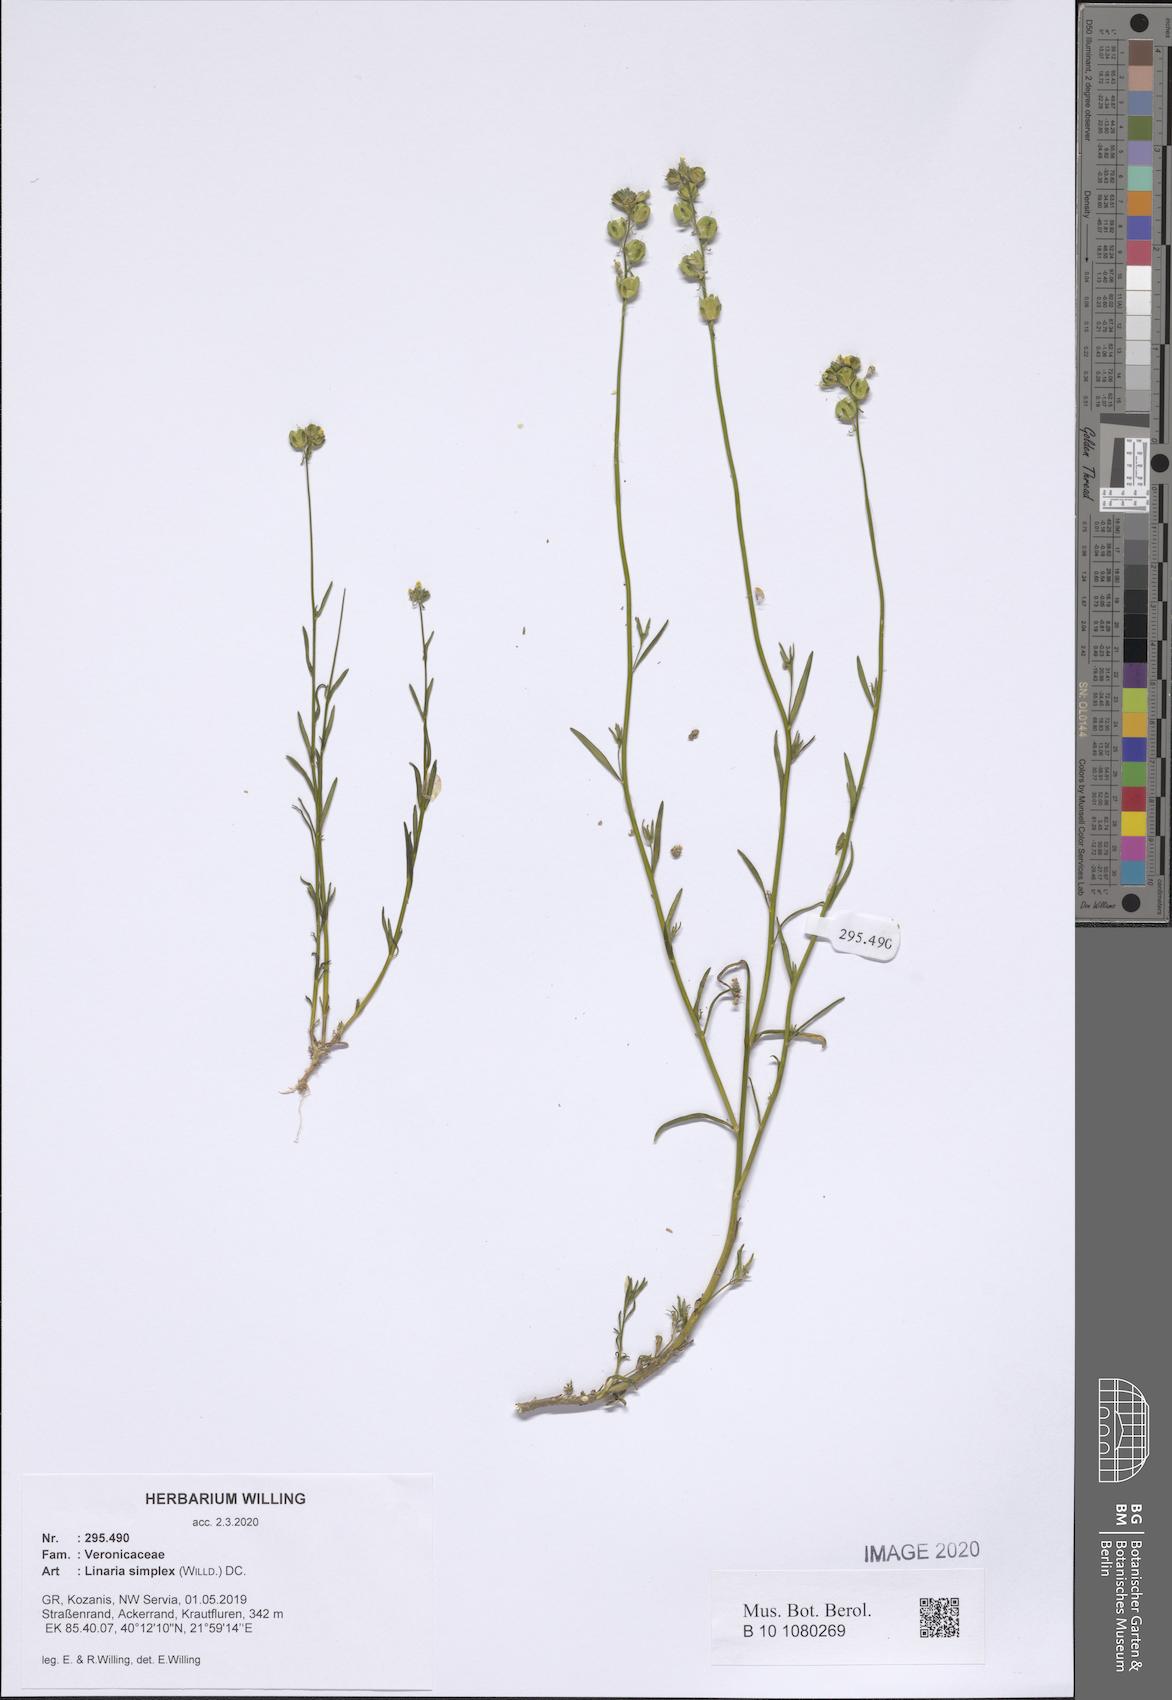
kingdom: Plantae
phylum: Tracheophyta
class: Magnoliopsida
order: Lamiales
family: Plantaginaceae
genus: Linaria
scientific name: Linaria simplex
